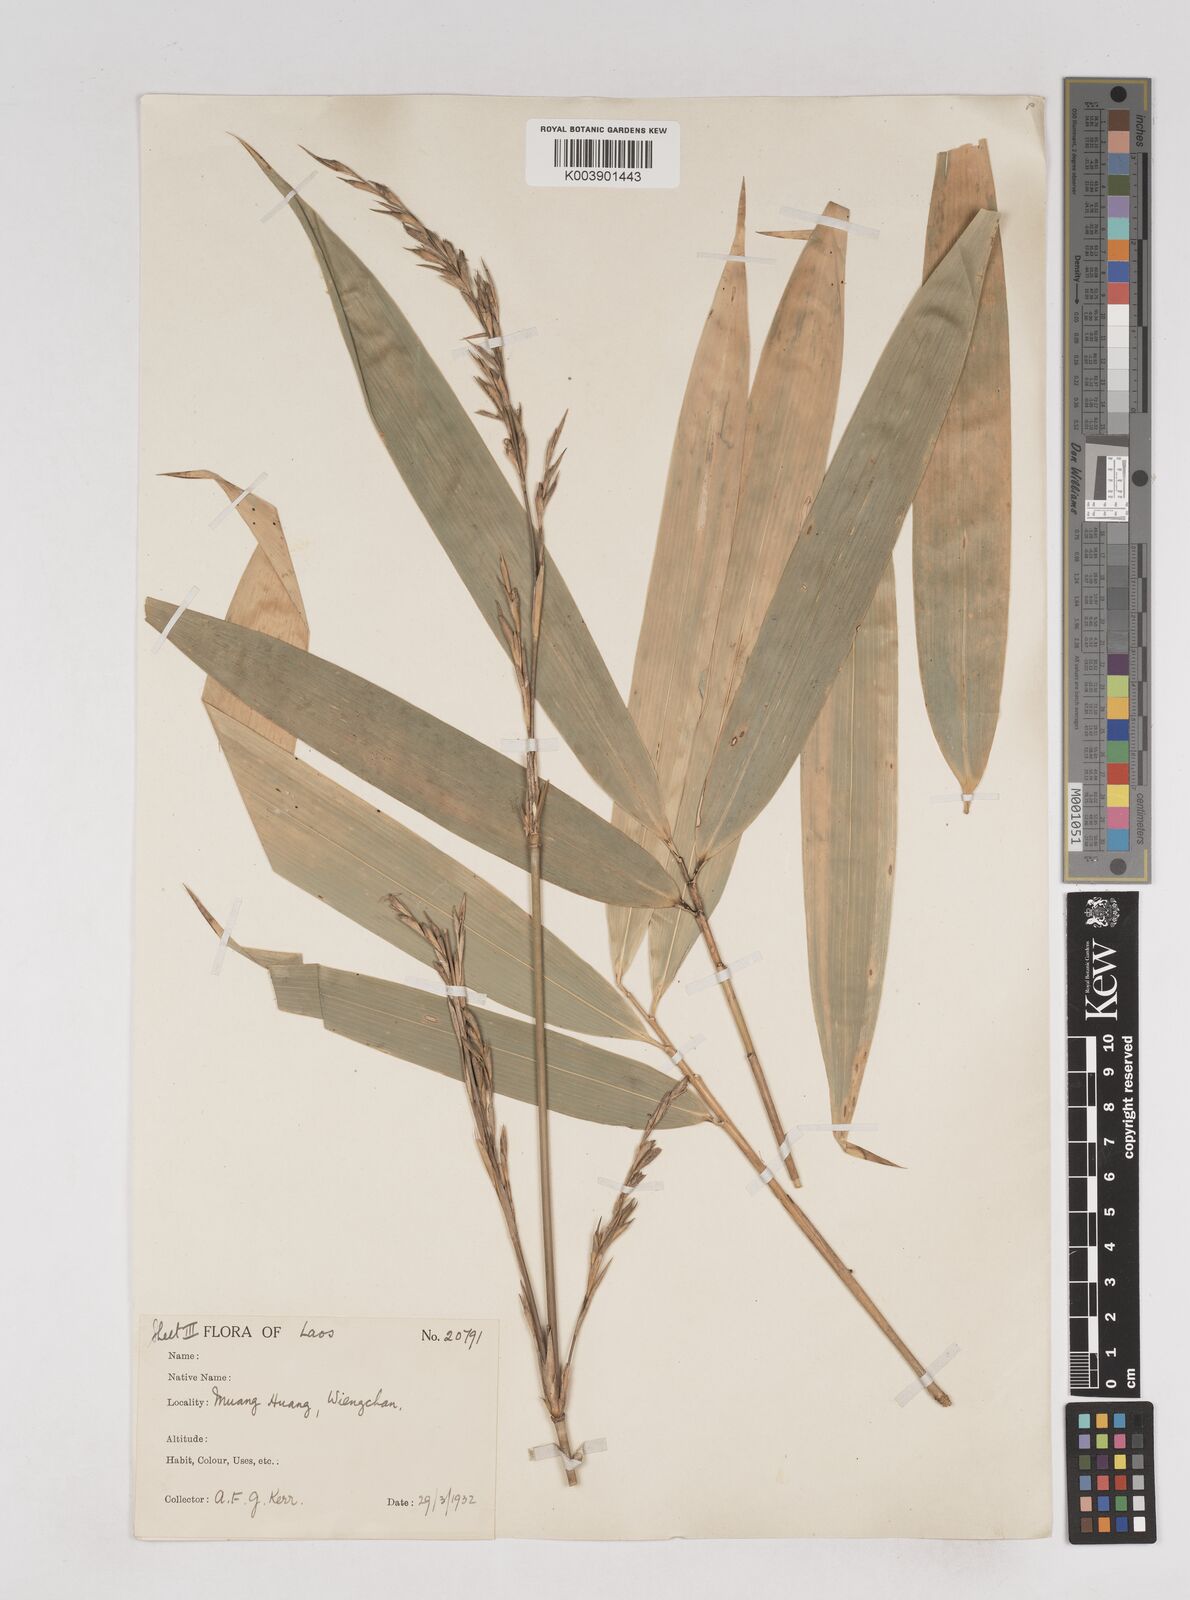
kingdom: Plantae
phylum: Tracheophyta
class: Liliopsida
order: Poales
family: Poaceae
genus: Schizostachyum
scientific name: Schizostachyum
